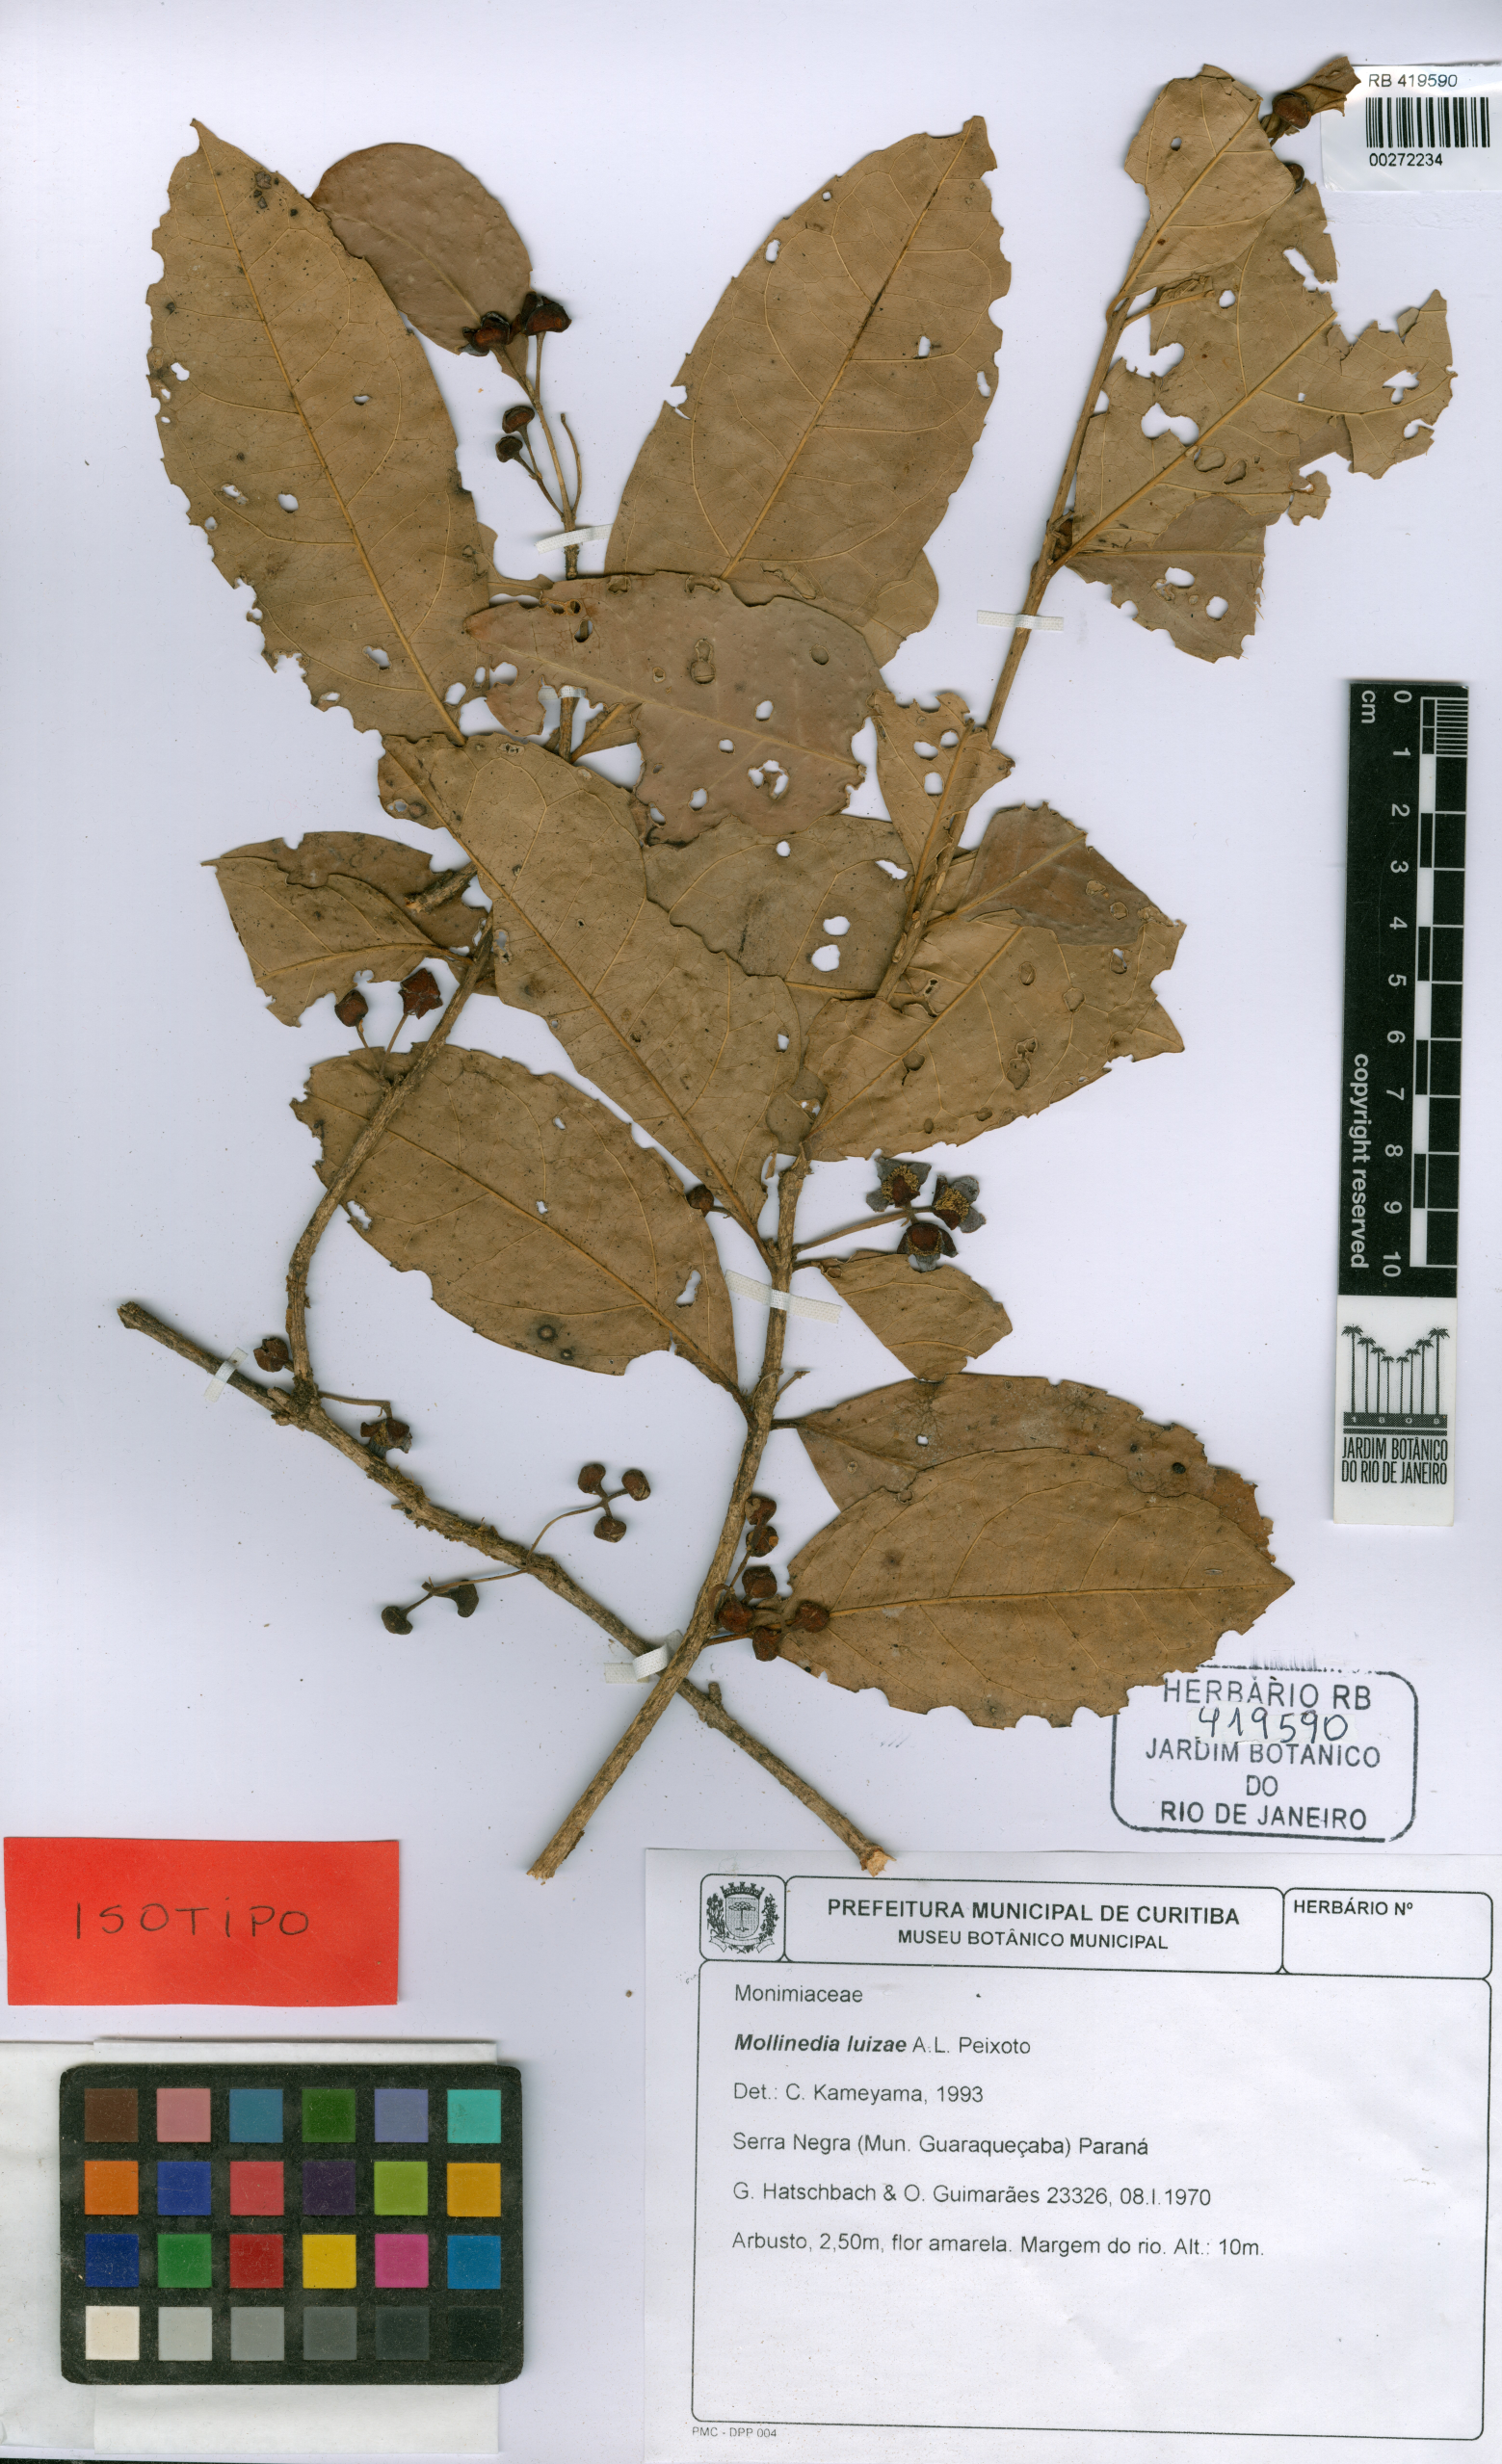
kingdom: Plantae
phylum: Tracheophyta
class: Magnoliopsida
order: Laurales
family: Monimiaceae
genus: Mollinedia
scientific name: Mollinedia luizae
